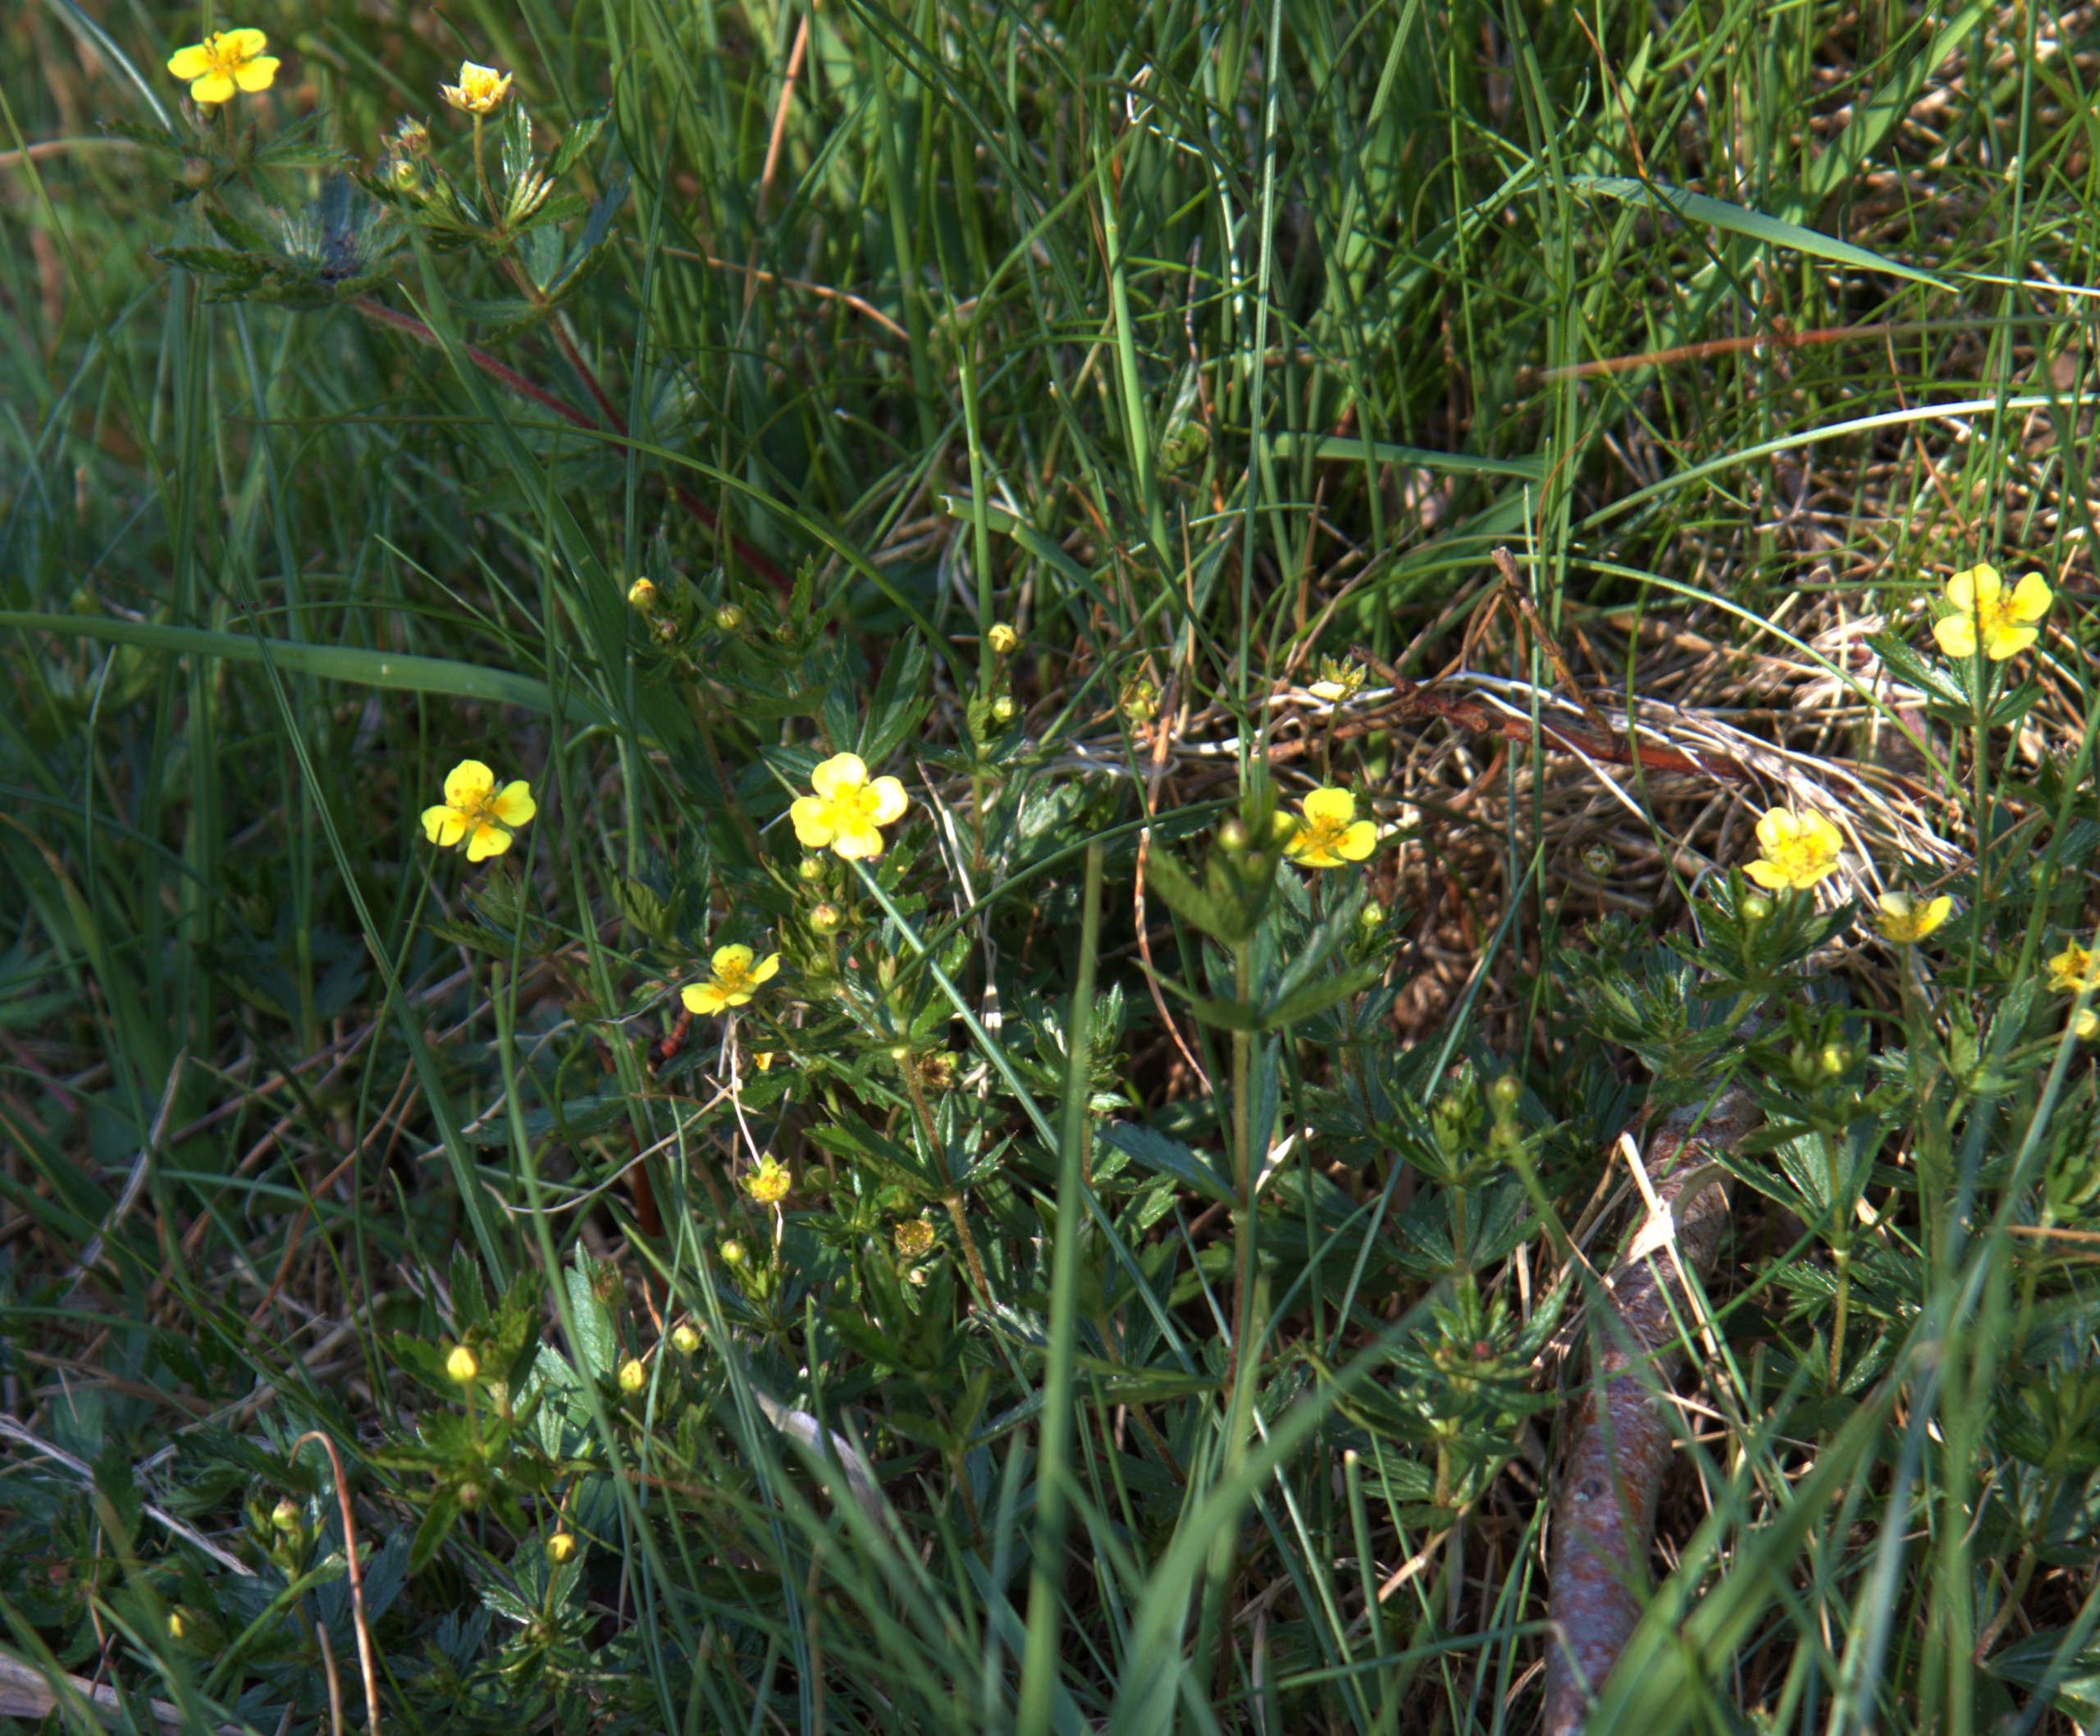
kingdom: Plantae
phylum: Tracheophyta
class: Magnoliopsida
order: Rosales
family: Rosaceae
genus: Potentilla
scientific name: Potentilla erecta
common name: Tormentil
